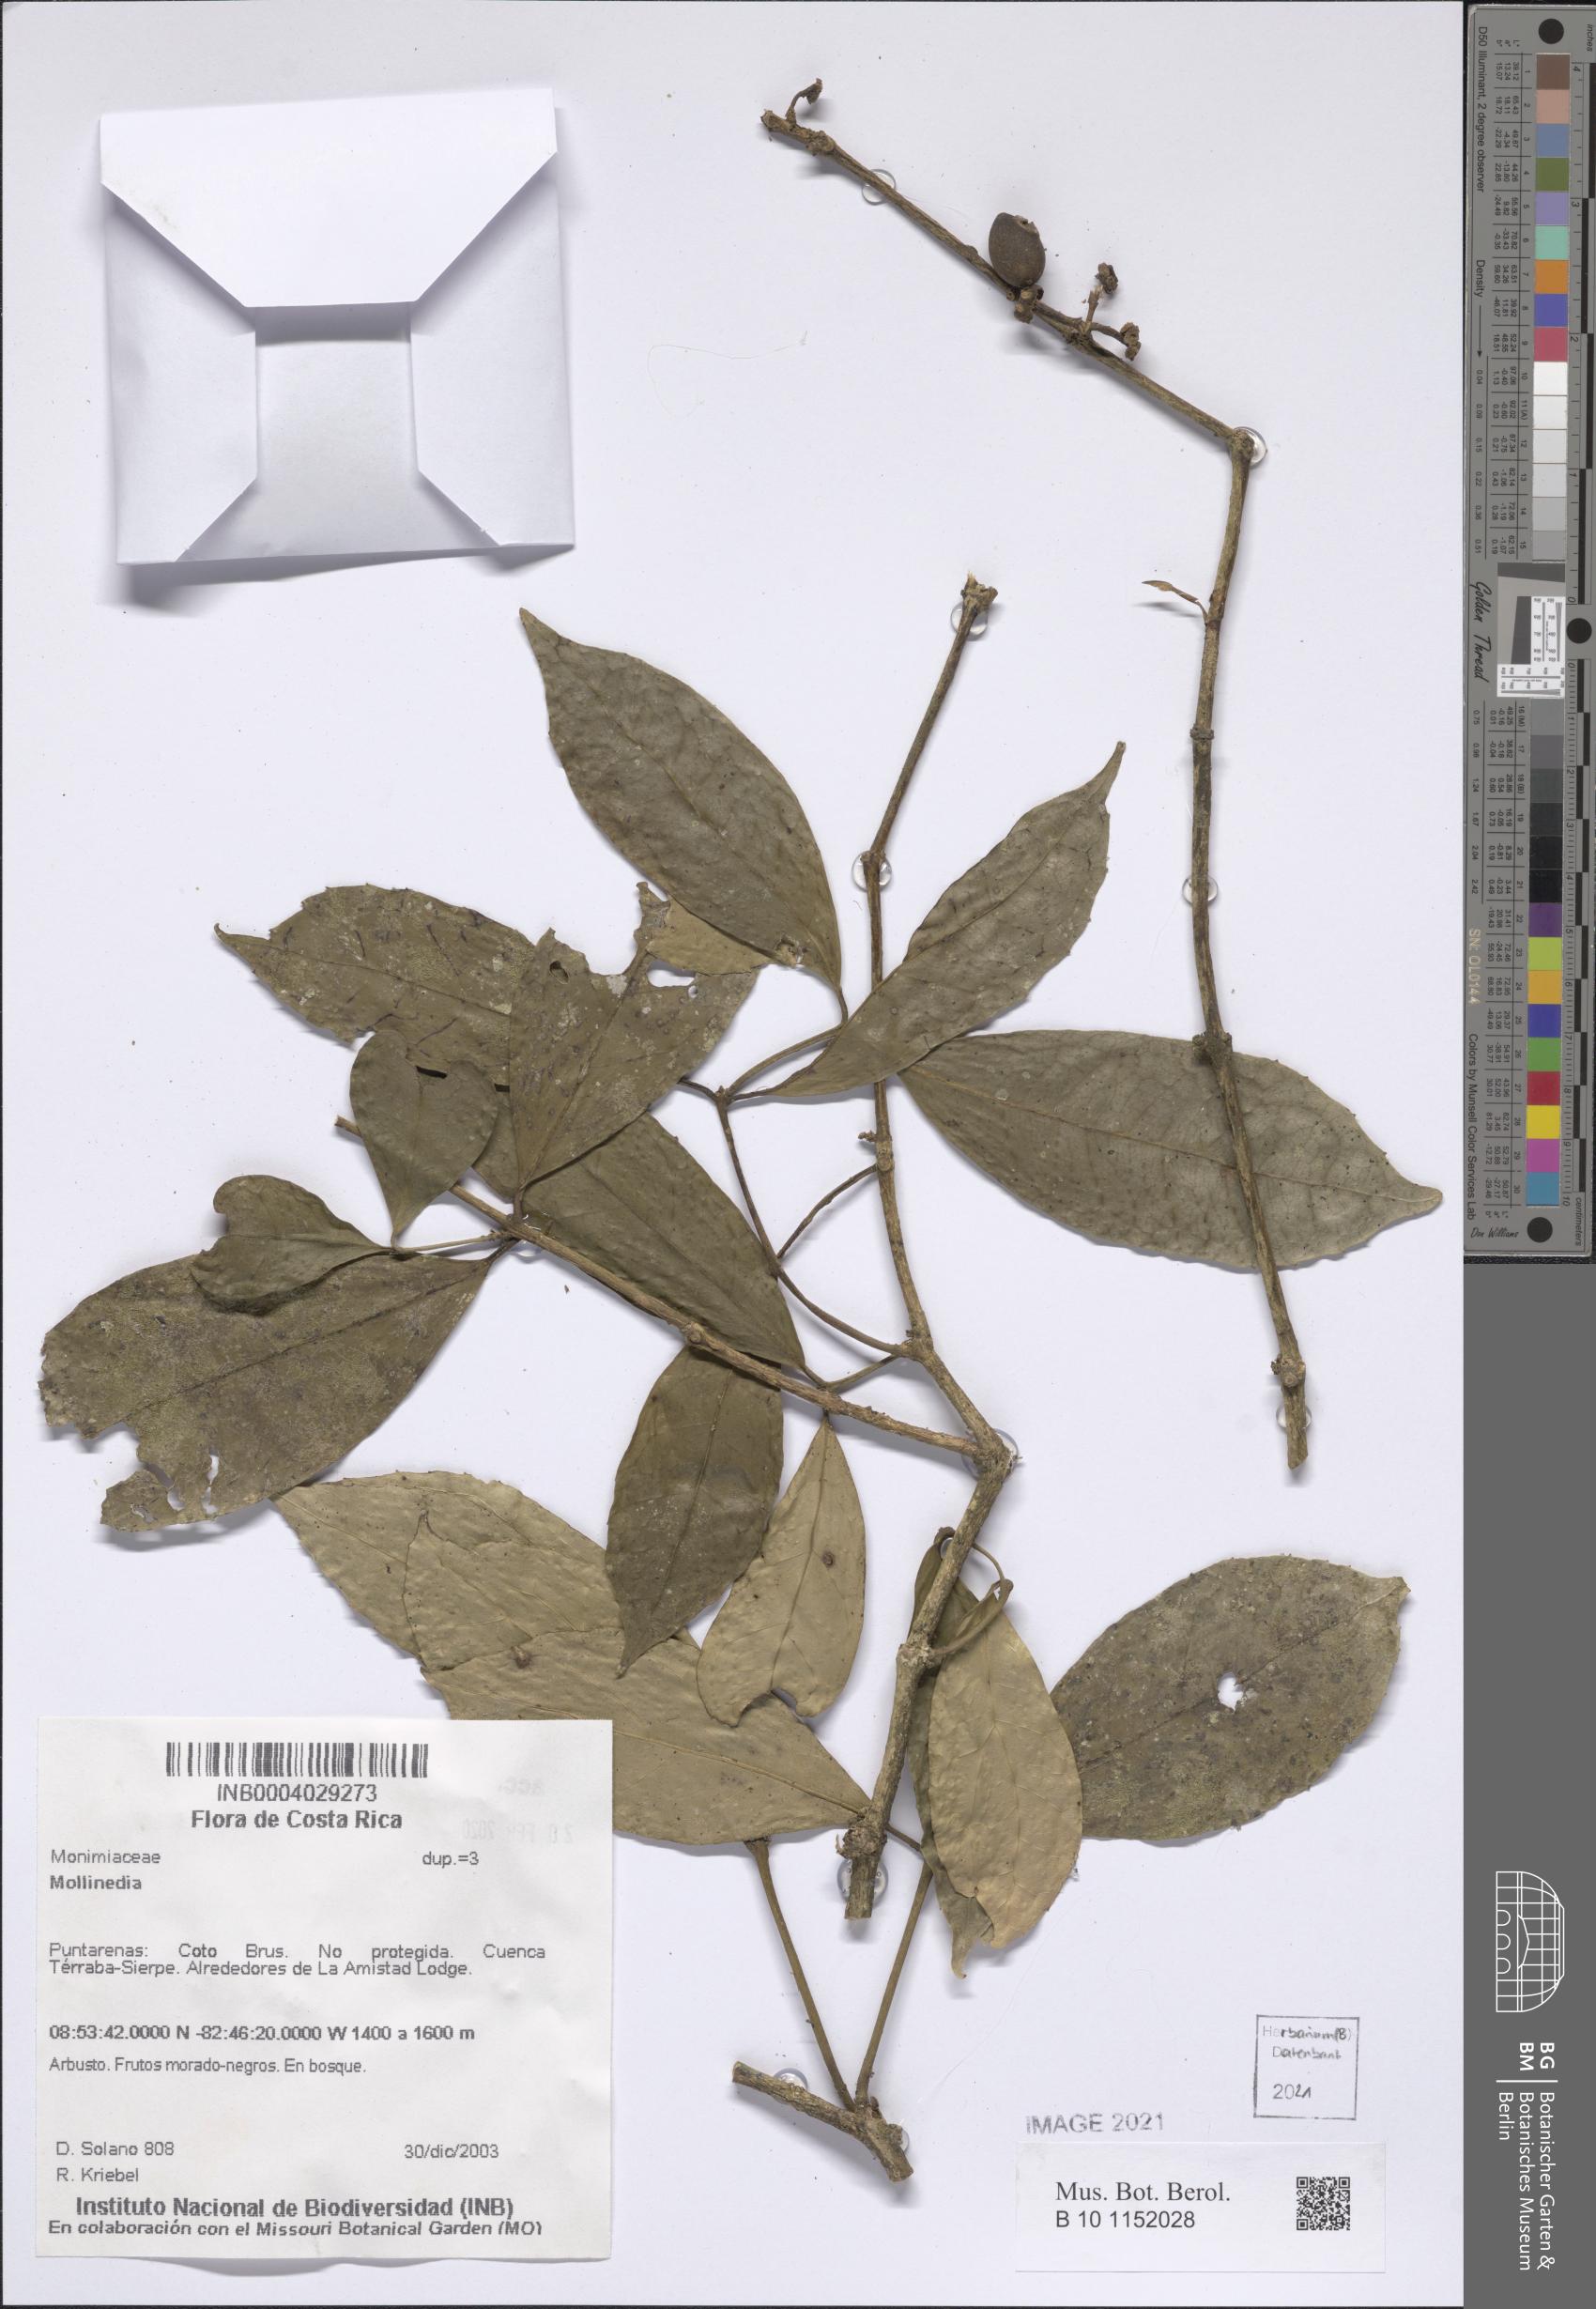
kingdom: Plantae
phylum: Tracheophyta
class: Magnoliopsida
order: Laurales
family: Monimiaceae
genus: Mollinedia
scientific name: Mollinedia viridiflora
